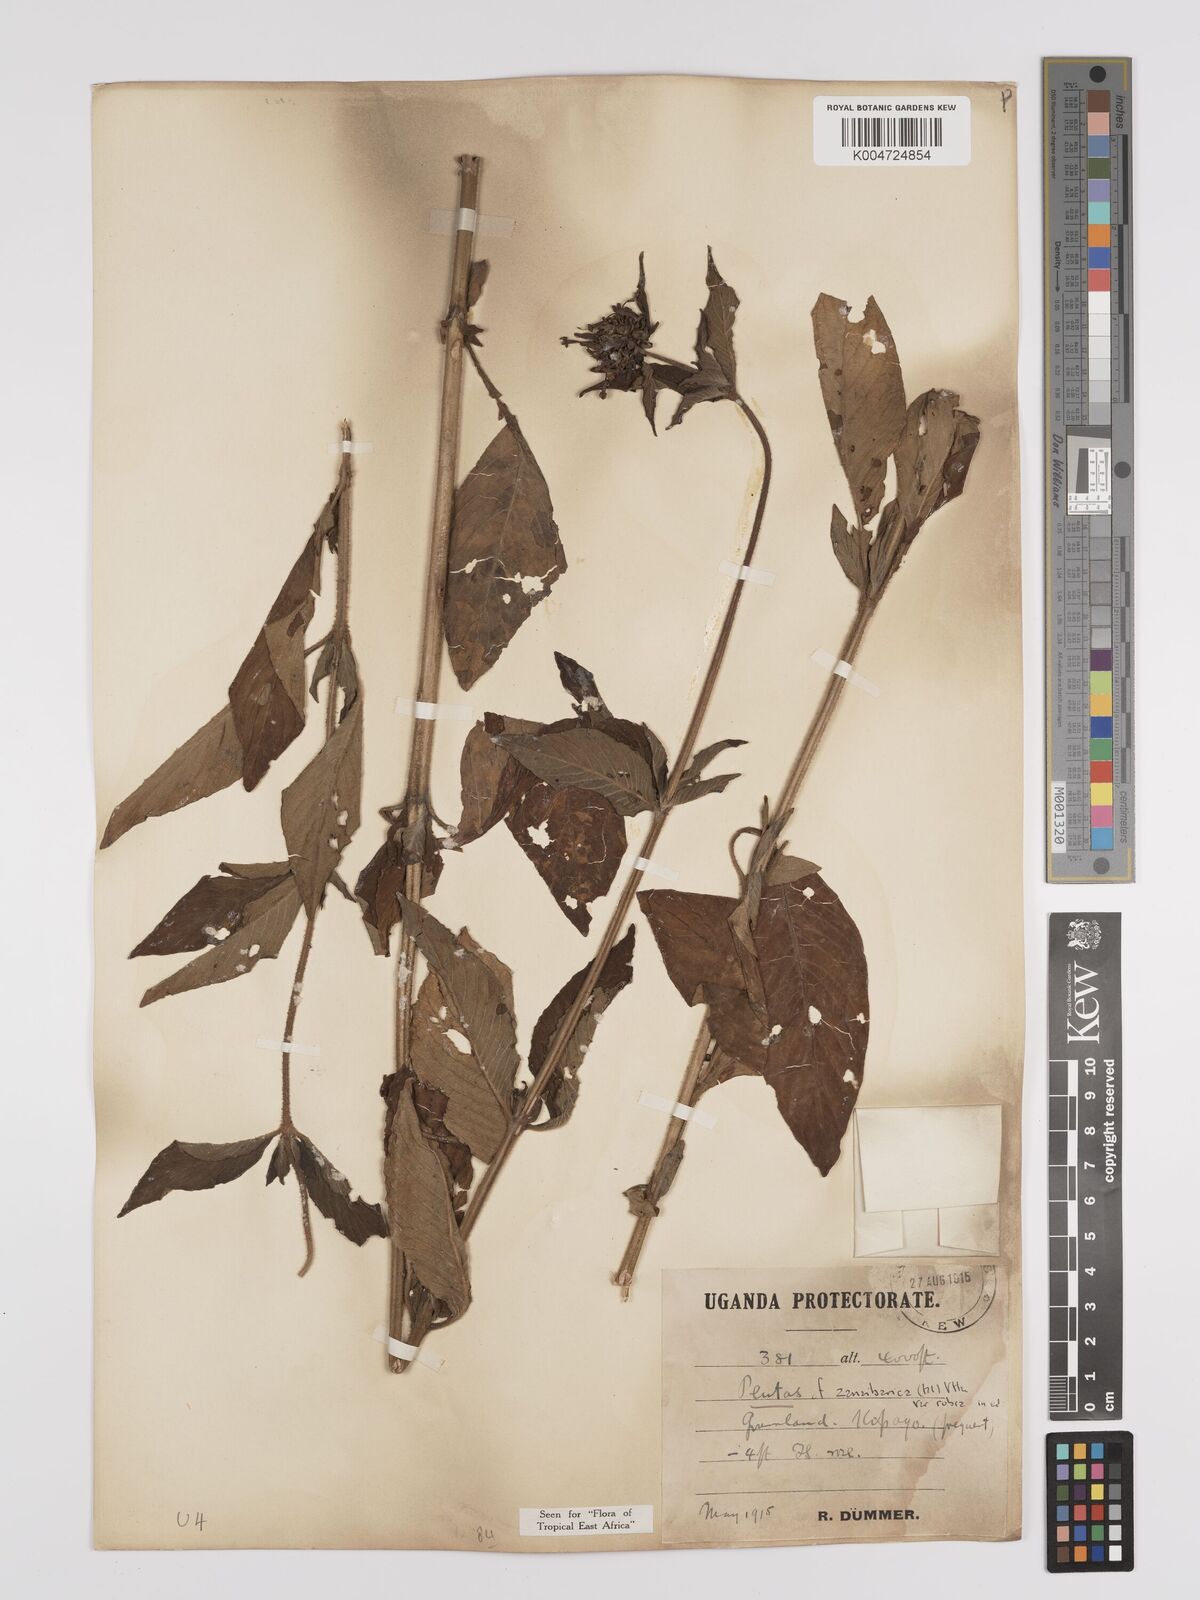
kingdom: Plantae
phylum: Tracheophyta
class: Magnoliopsida
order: Gentianales
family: Rubiaceae
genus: Pentas
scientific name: Pentas zanzibarica
